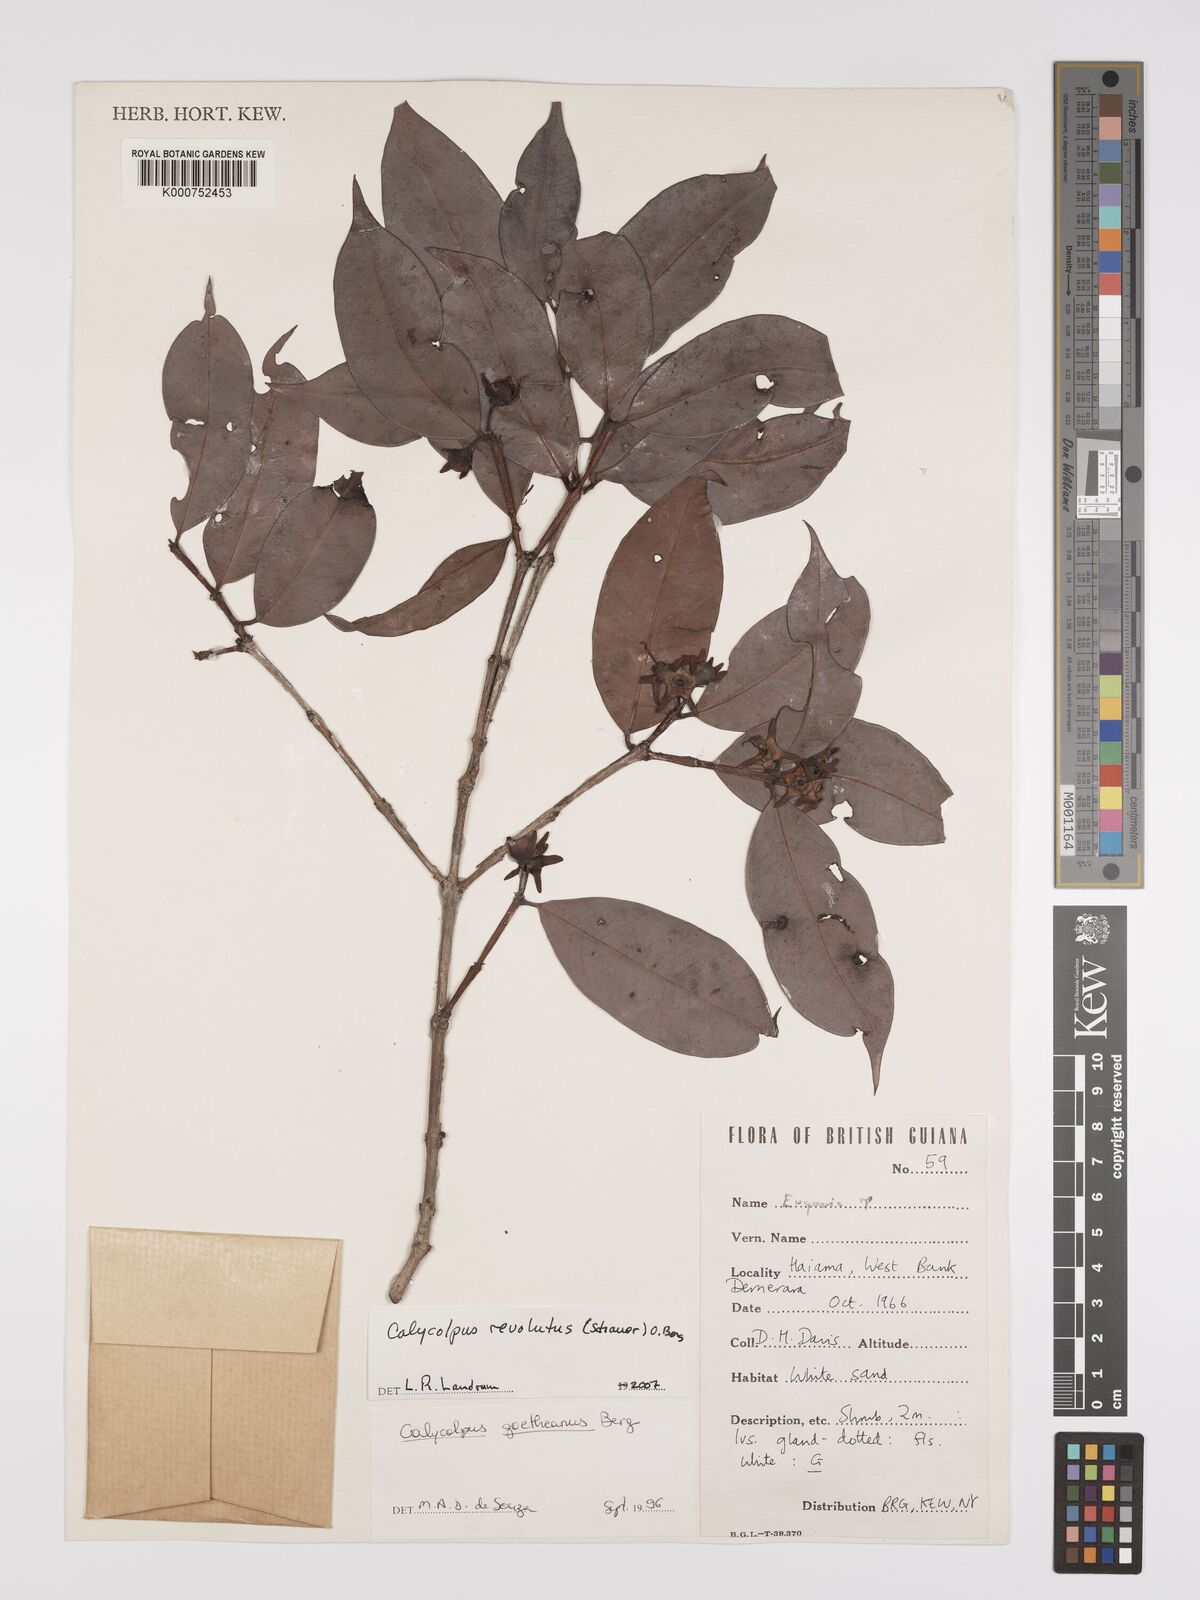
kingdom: Plantae
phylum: Tracheophyta
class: Magnoliopsida
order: Myrtales
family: Myrtaceae
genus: Calycolpus
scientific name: Calycolpus revolutus
